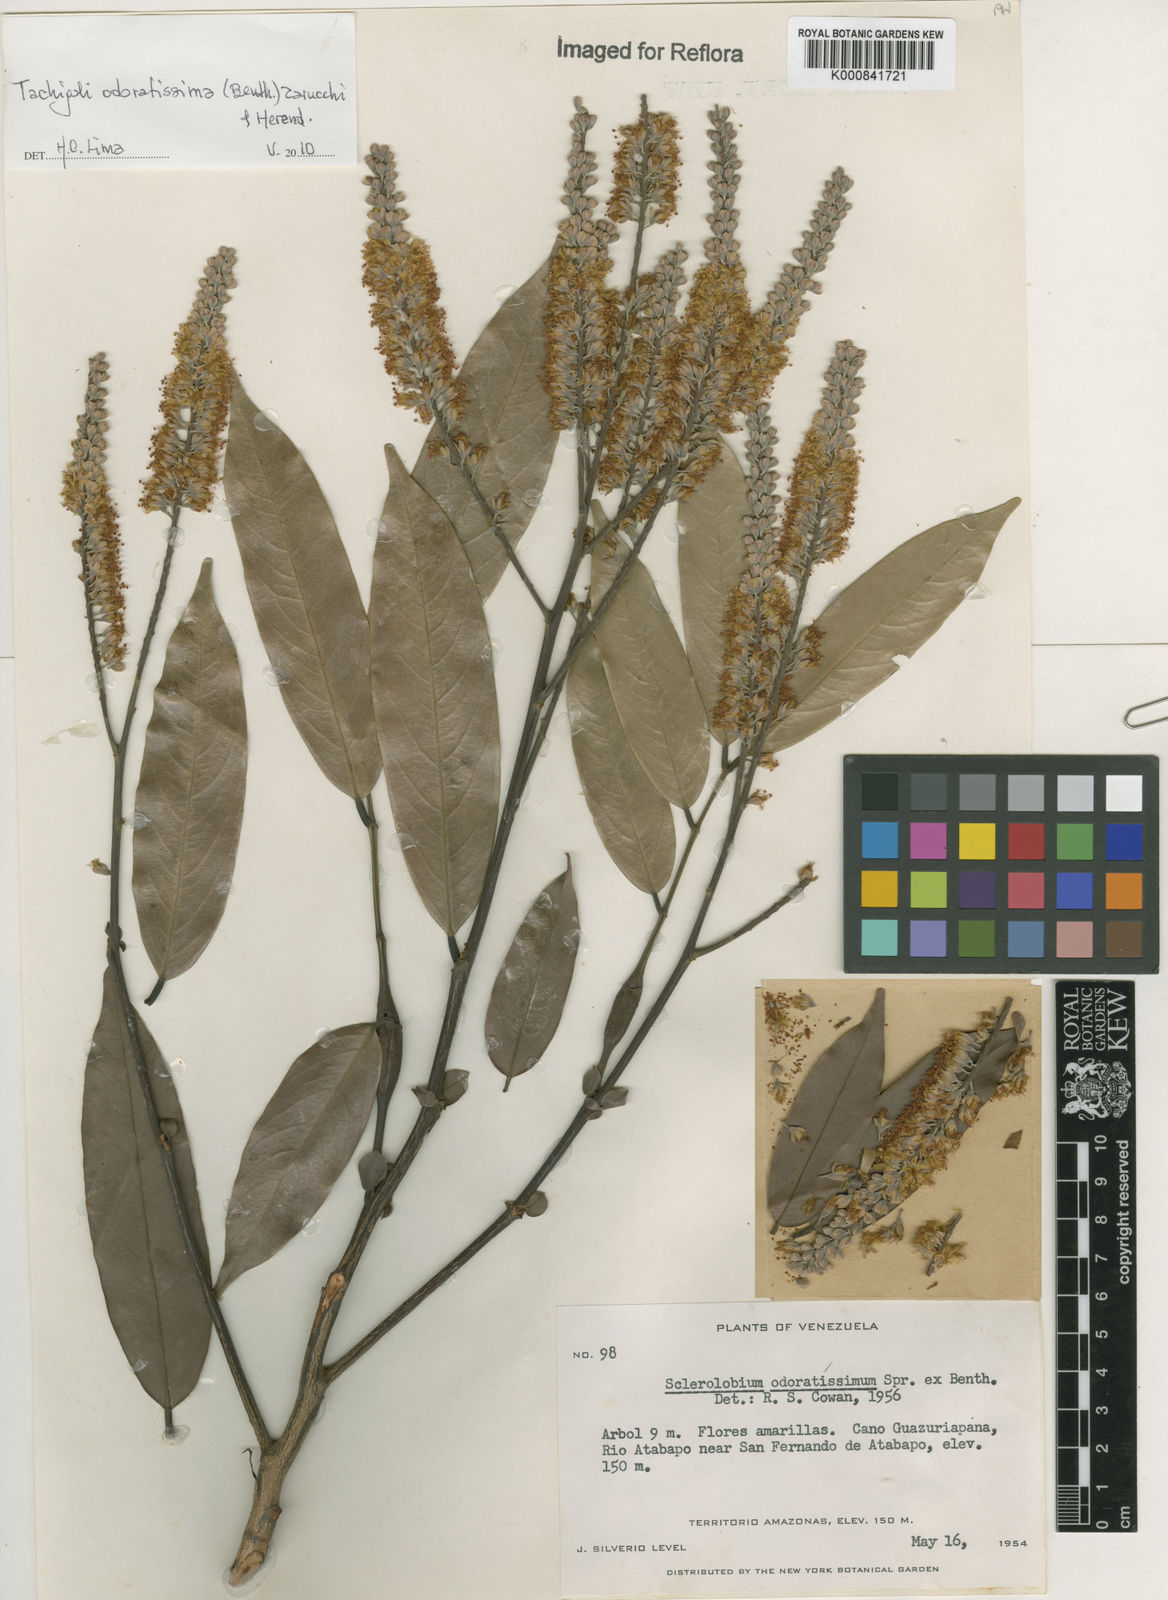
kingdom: Plantae
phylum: Tracheophyta
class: Magnoliopsida
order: Fabales
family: Fabaceae
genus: Tachigali
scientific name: Tachigali odoratissima
